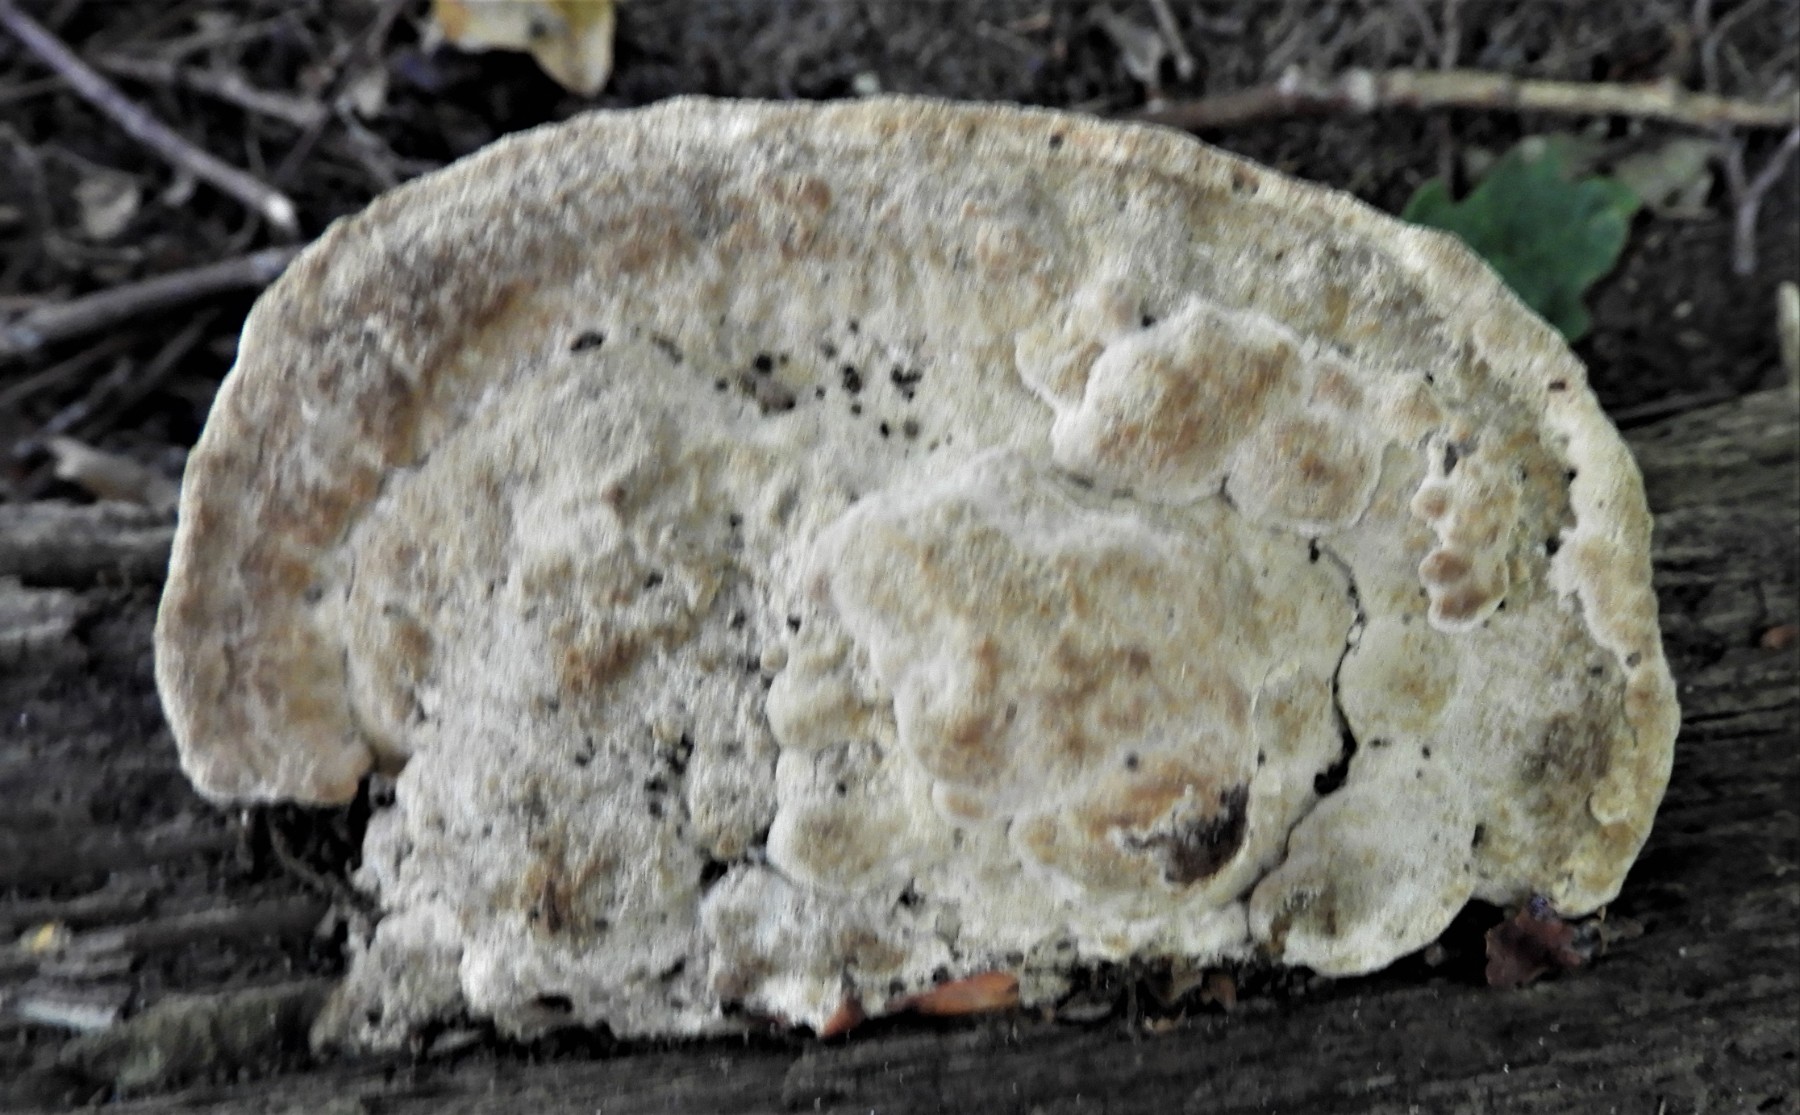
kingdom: Fungi
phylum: Basidiomycota
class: Agaricomycetes
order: Polyporales
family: Fomitopsidaceae
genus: Daedalea
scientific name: Daedalea quercina
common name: ege-labyrintsvamp
